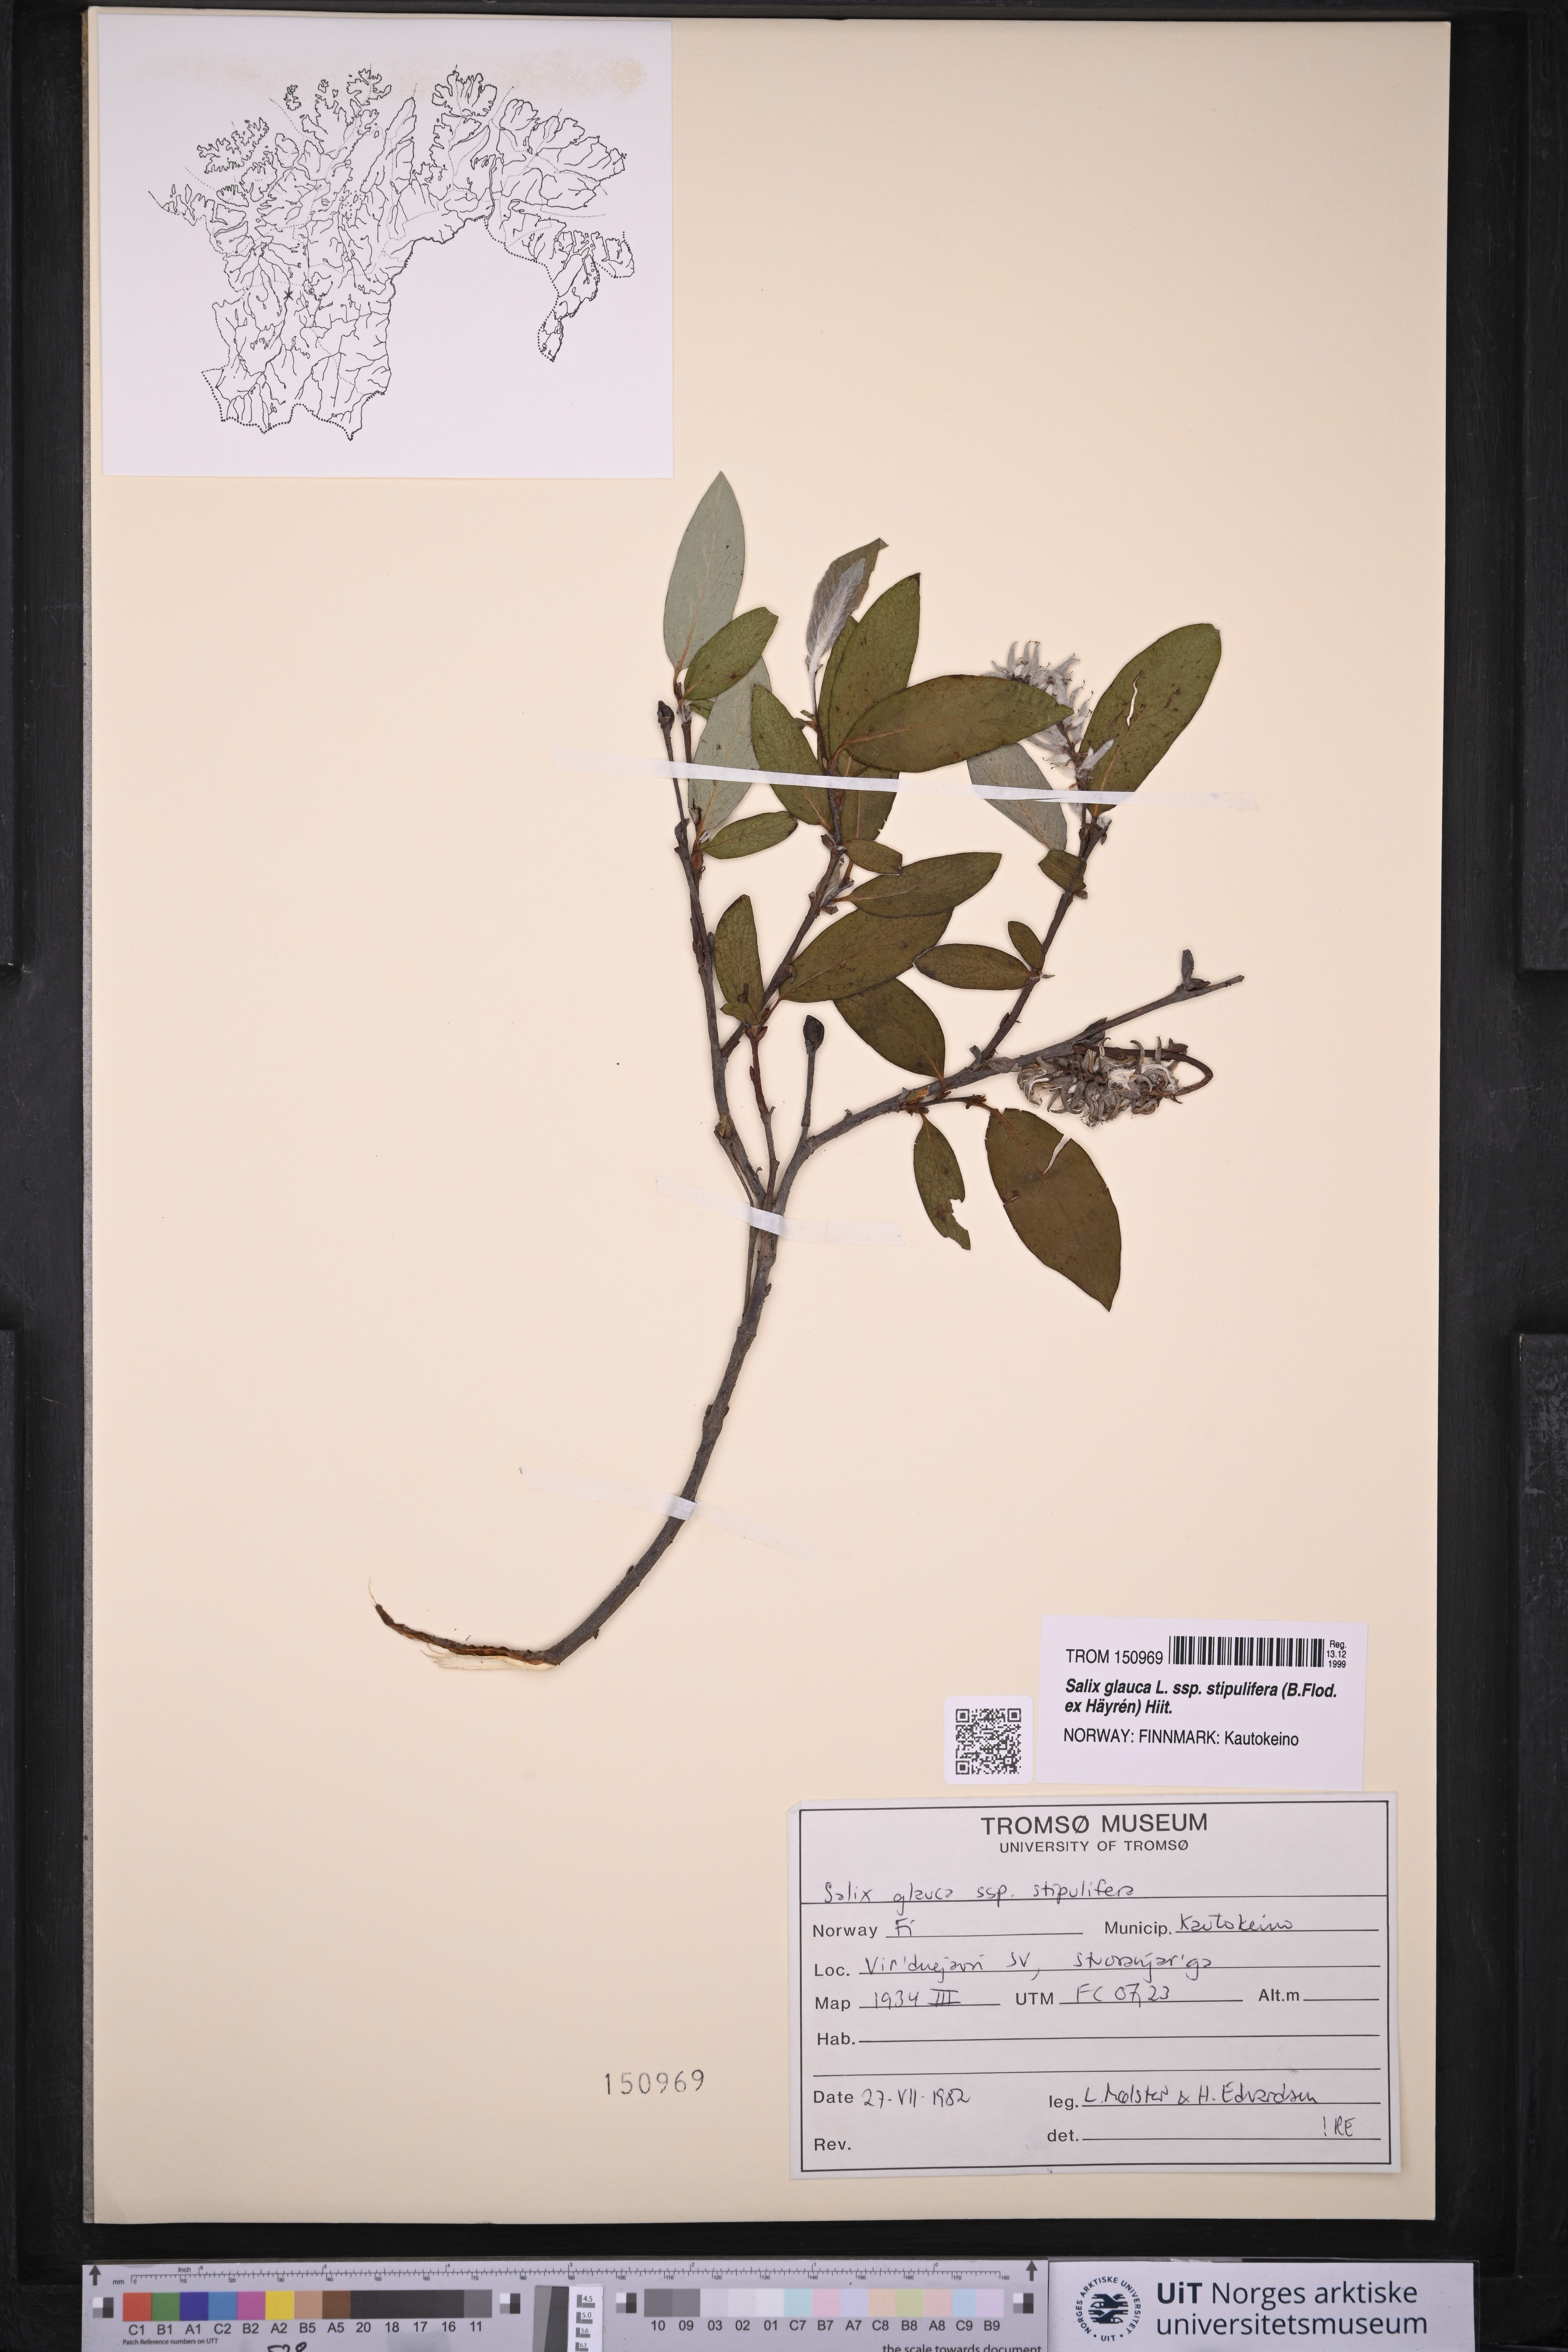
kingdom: Plantae
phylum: Tracheophyta
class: Magnoliopsida
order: Malpighiales
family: Salicaceae
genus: Salix
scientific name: Salix glauca
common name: Glaucous willow
